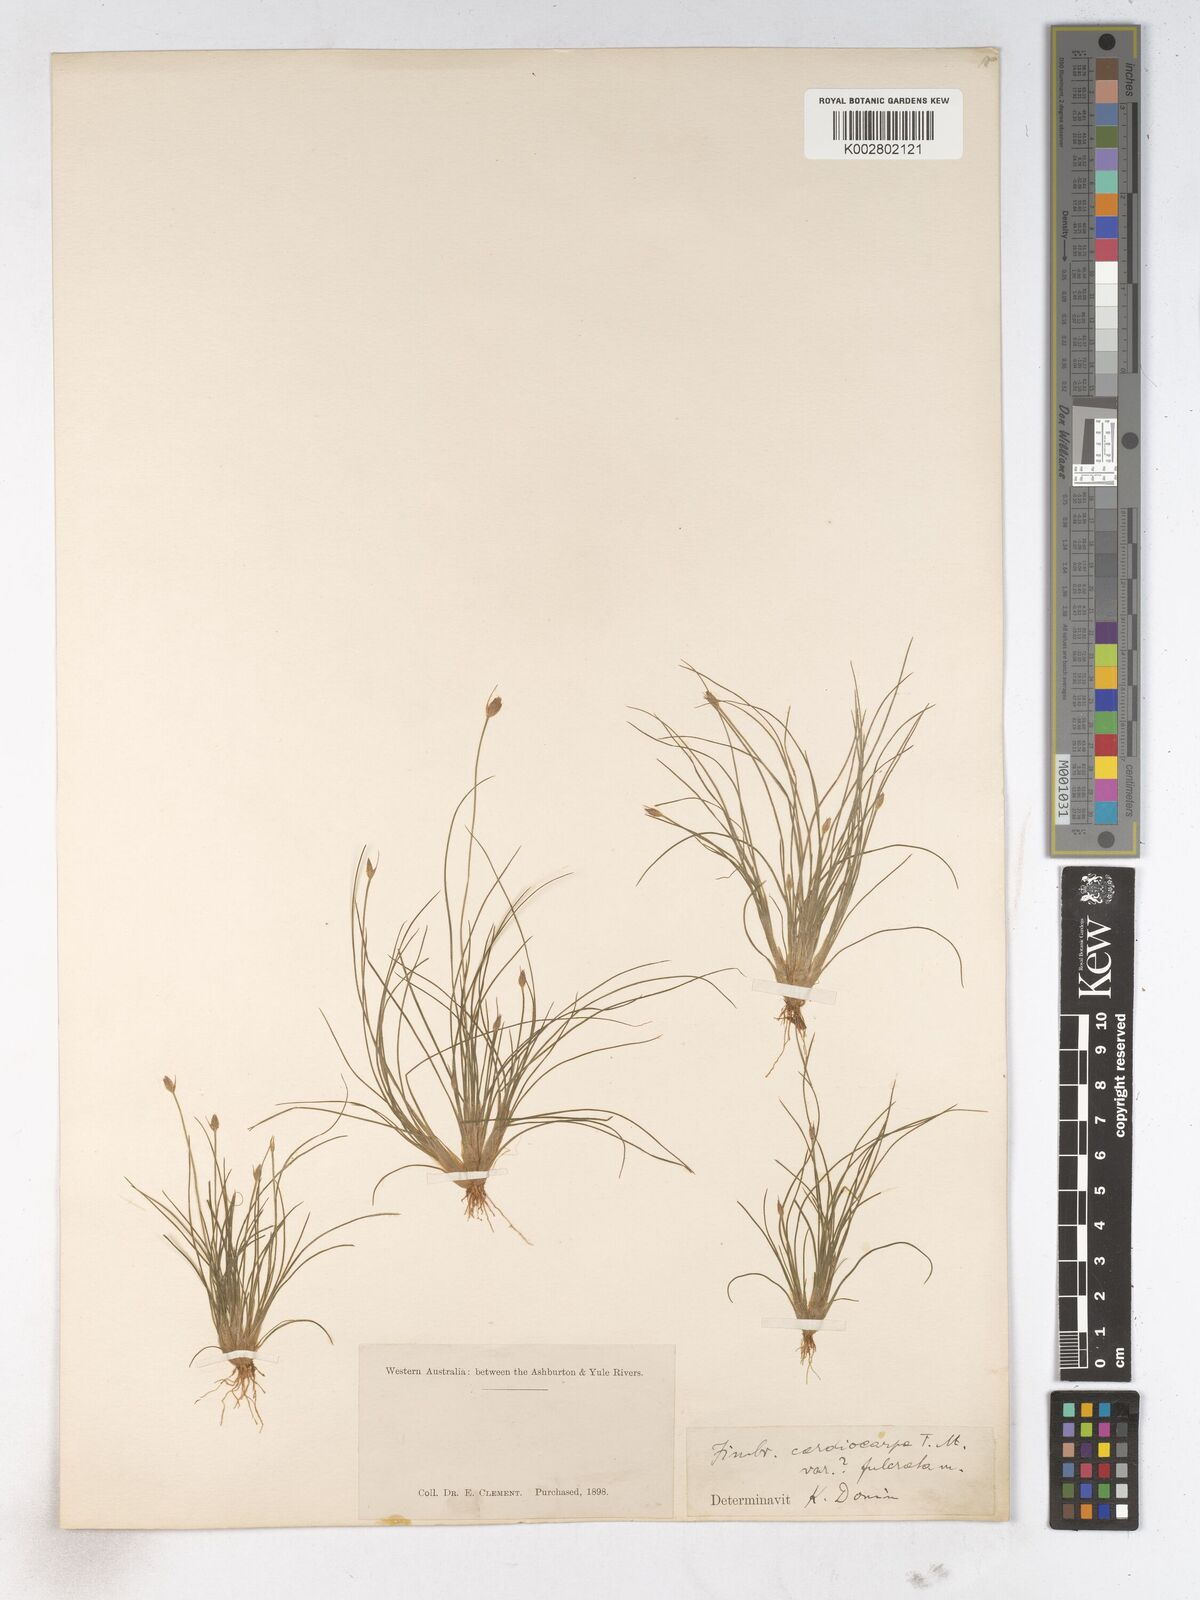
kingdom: Plantae
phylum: Tracheophyta
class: Liliopsida
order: Poales
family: Cyperaceae
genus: Fimbristylis
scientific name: Fimbristylis cardiocarpa
